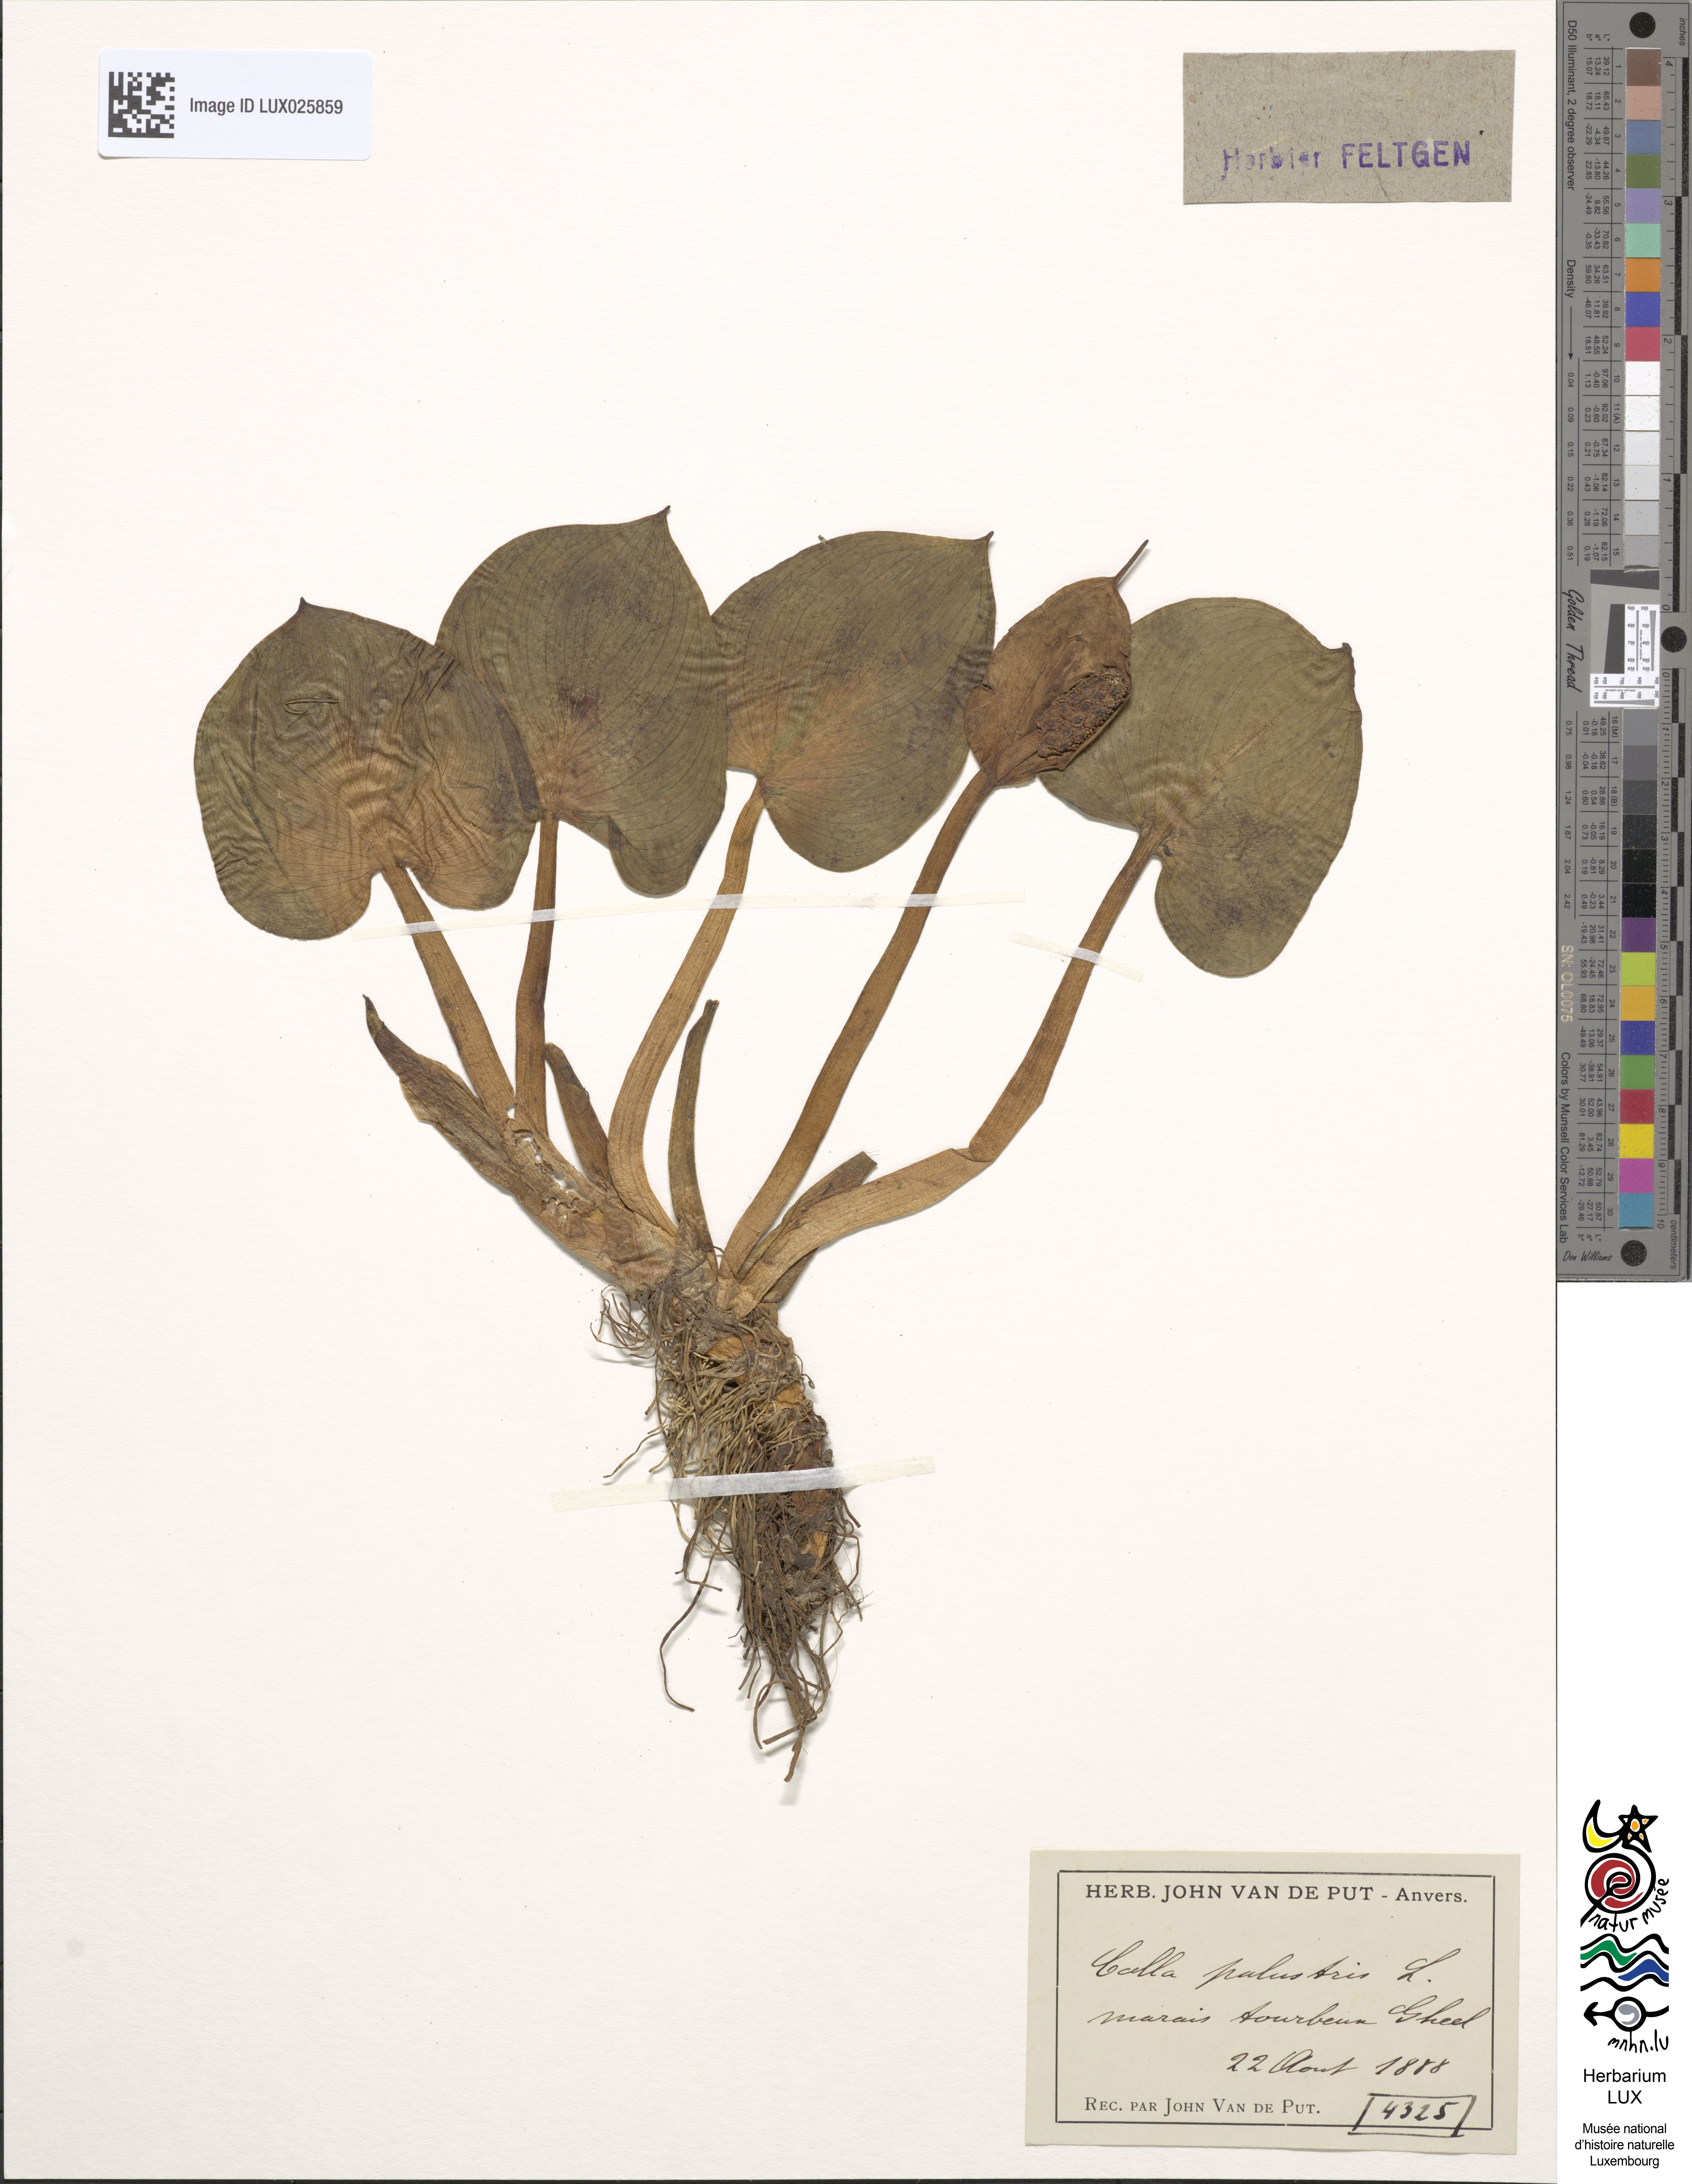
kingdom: Plantae
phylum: Tracheophyta
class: Liliopsida
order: Alismatales
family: Araceae
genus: Calla
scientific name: Calla palustris
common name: Bog arum
